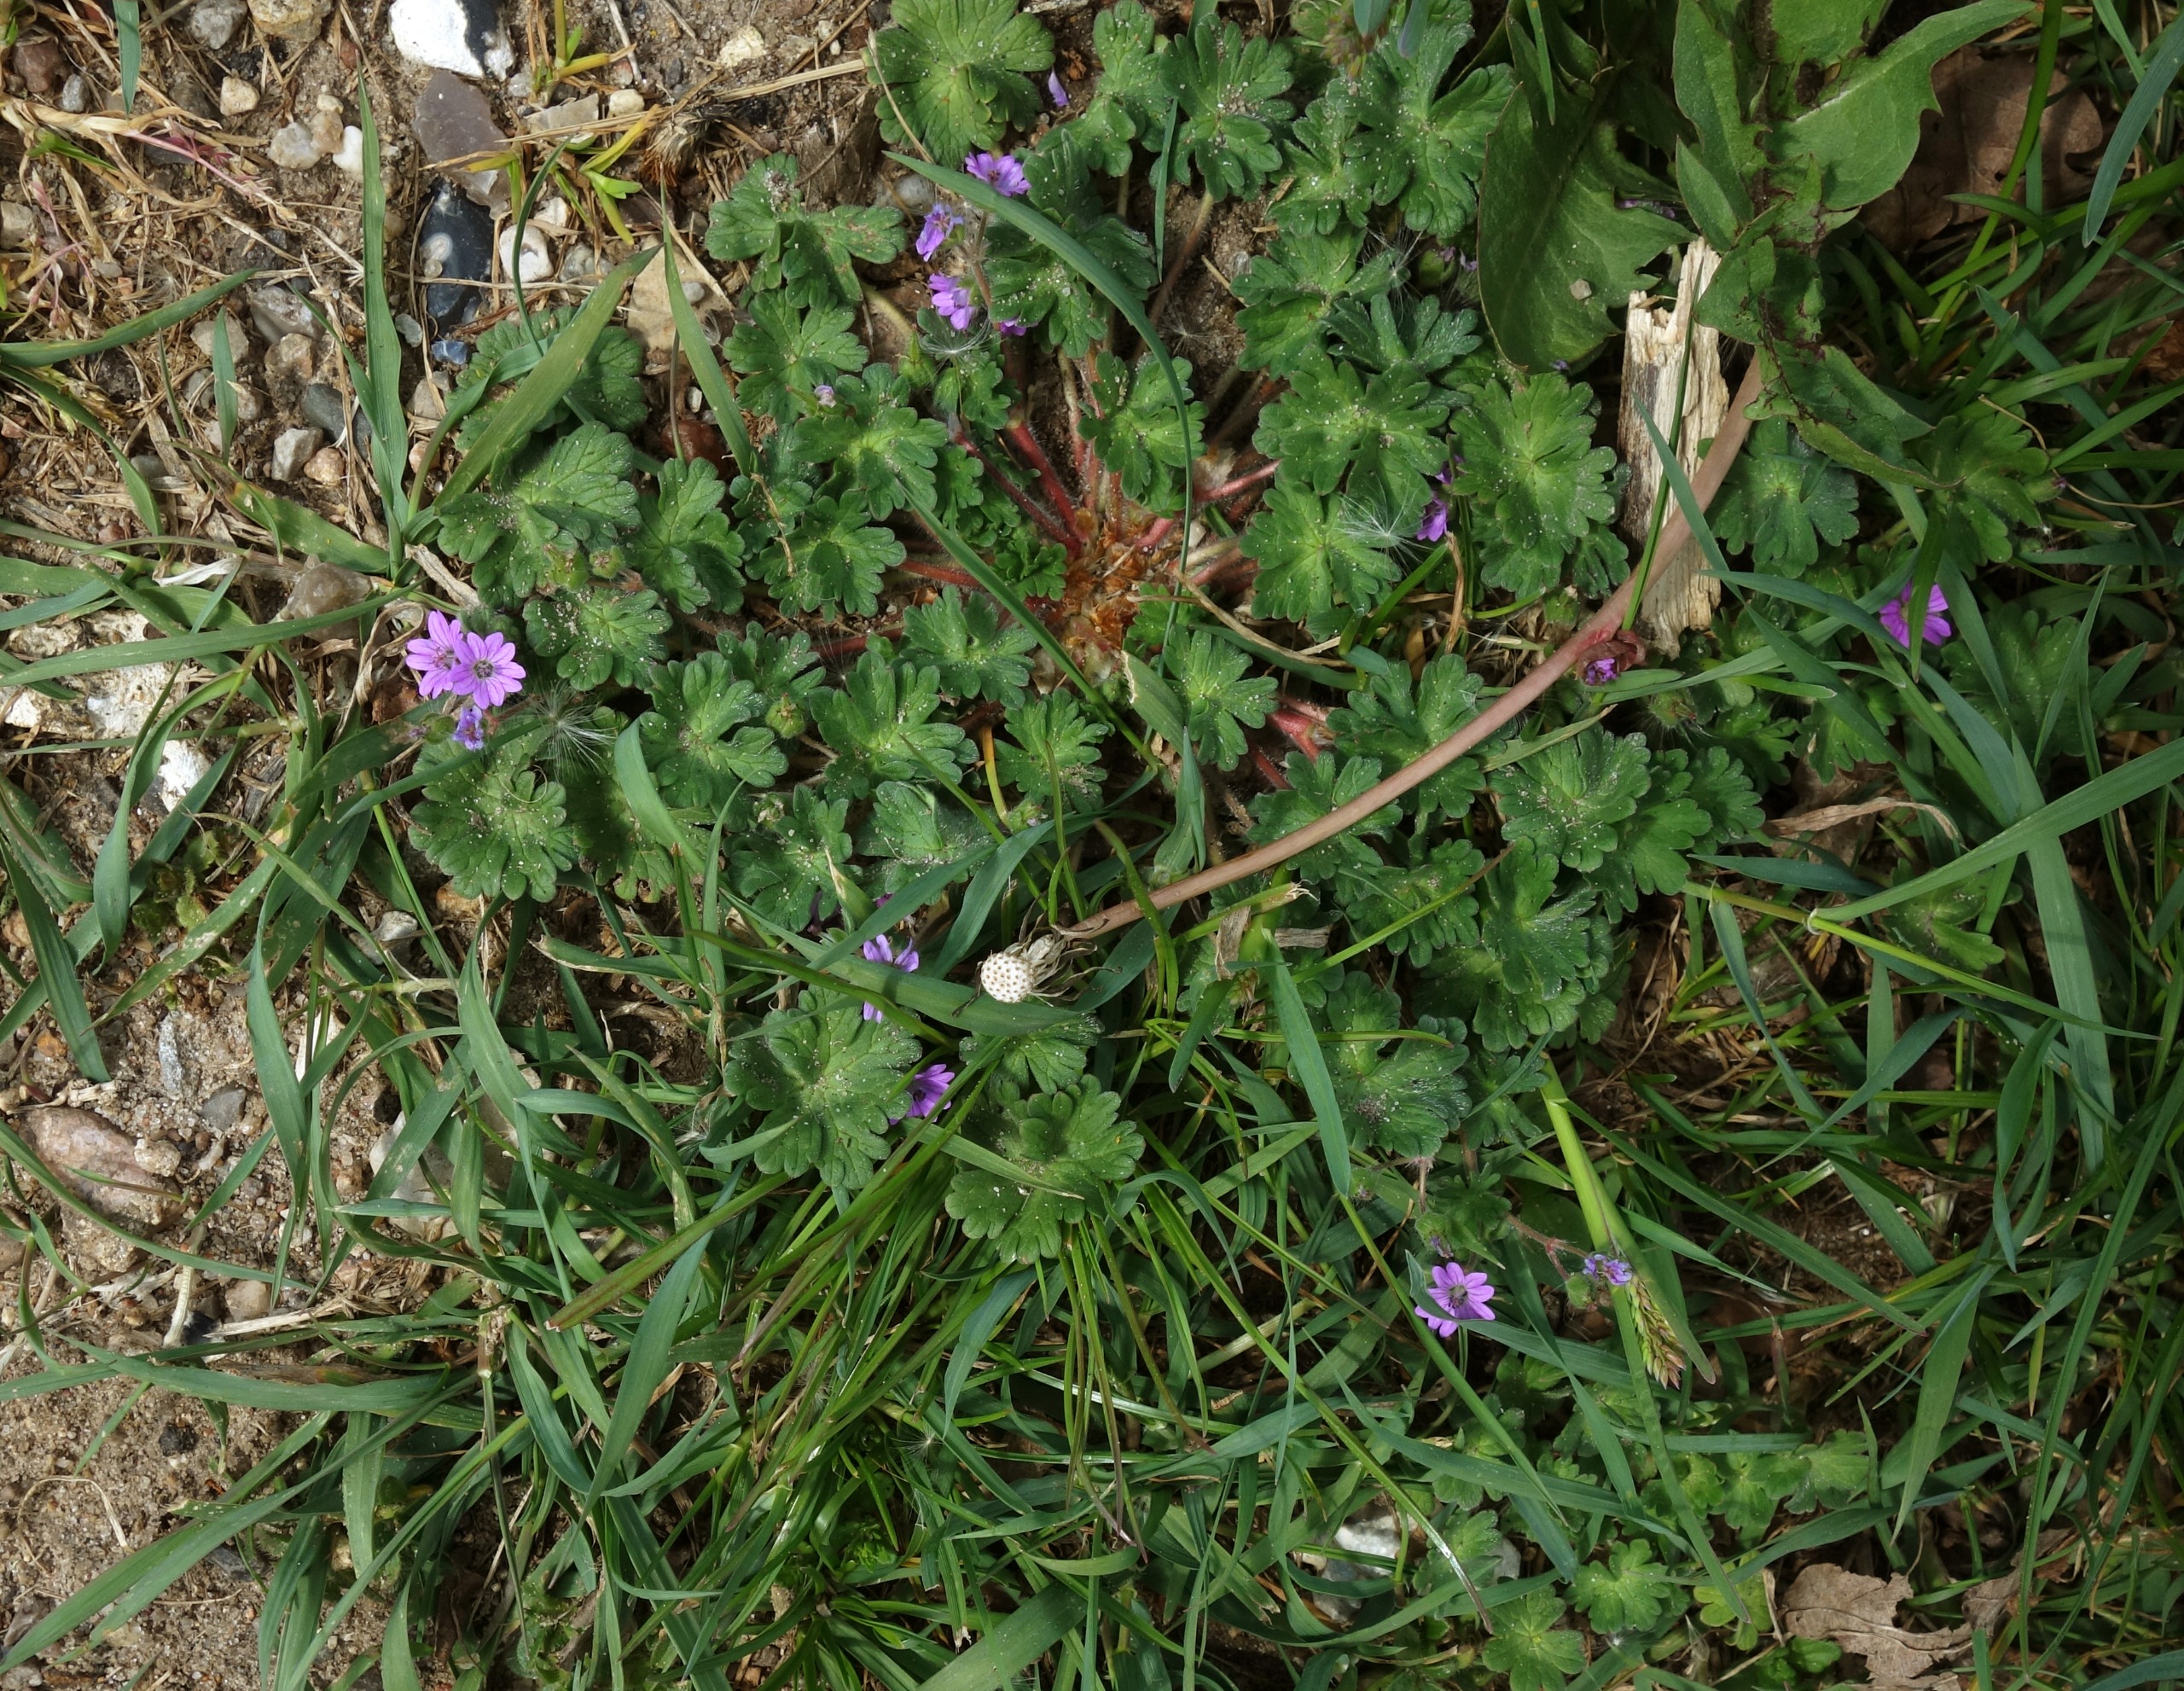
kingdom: Plantae
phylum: Tracheophyta
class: Magnoliopsida
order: Geraniales
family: Geraniaceae
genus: Geranium
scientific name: Geranium molle
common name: Blød storkenæb
